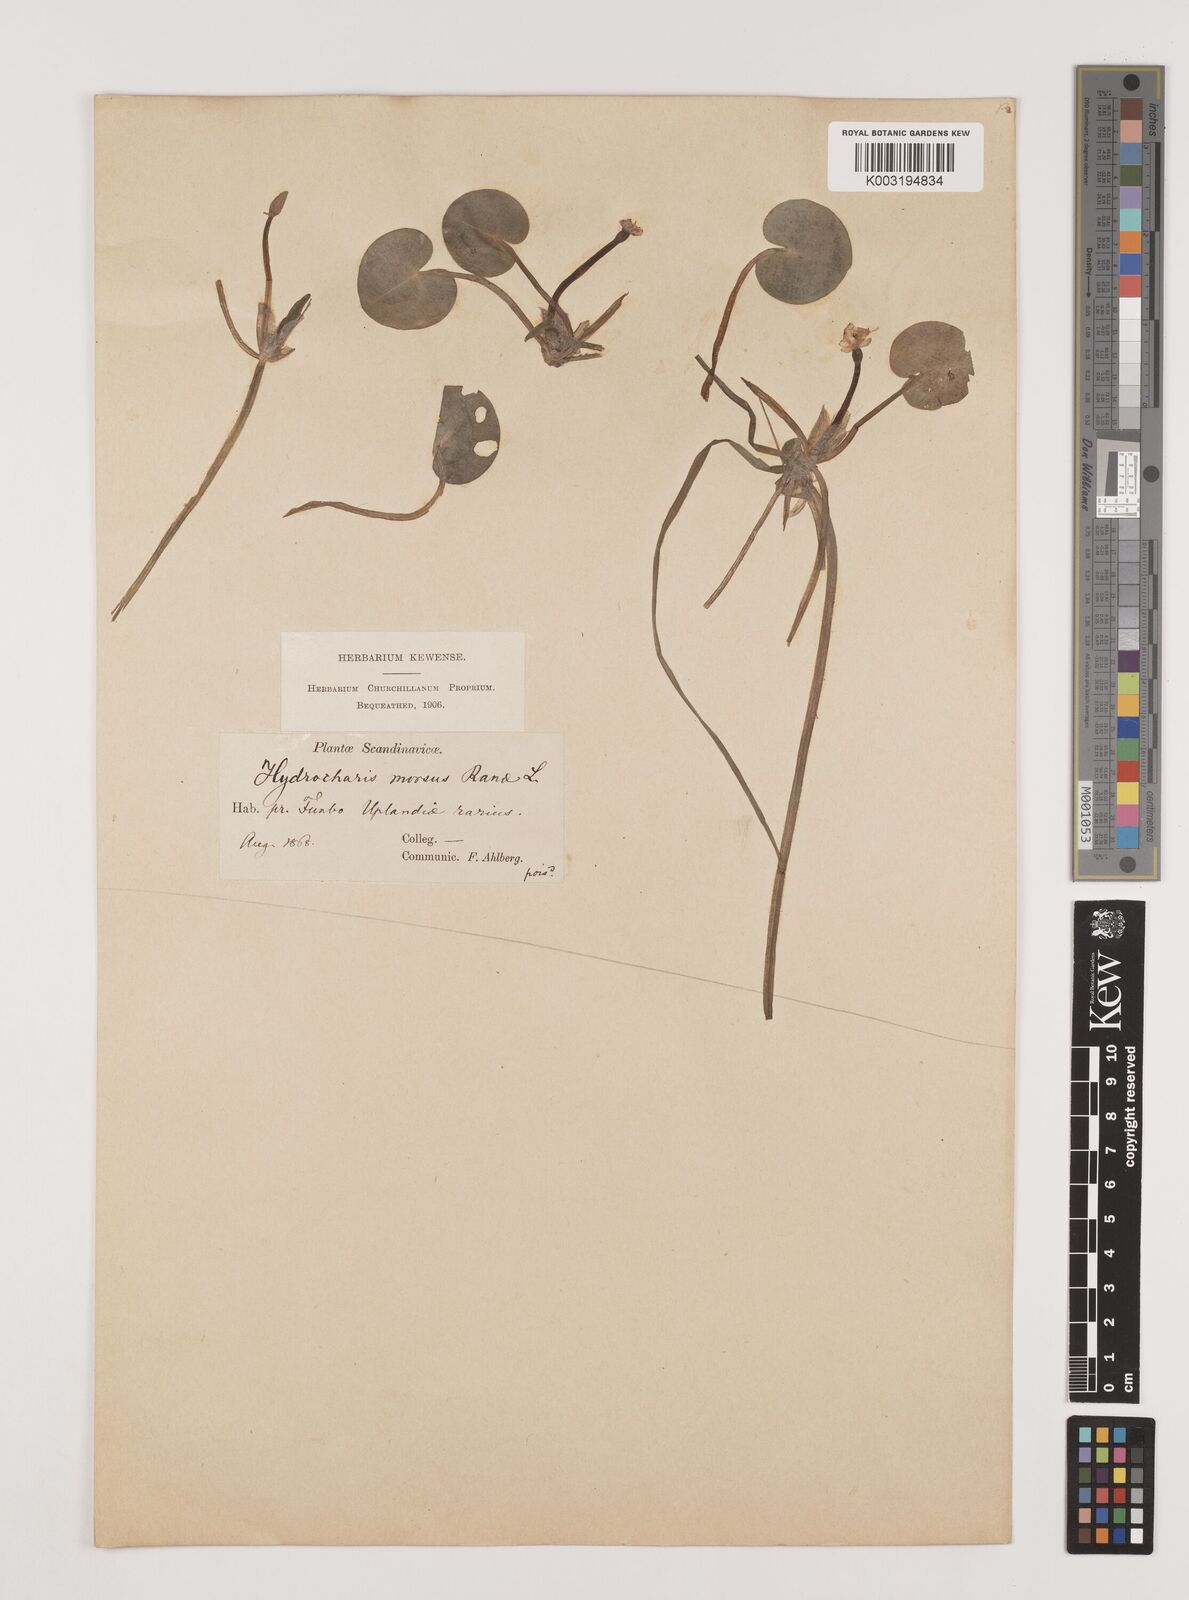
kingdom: Plantae
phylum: Tracheophyta
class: Liliopsida
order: Alismatales
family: Hydrocharitaceae
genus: Hydrocharis
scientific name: Hydrocharis morsus-ranae
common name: Frogbit
